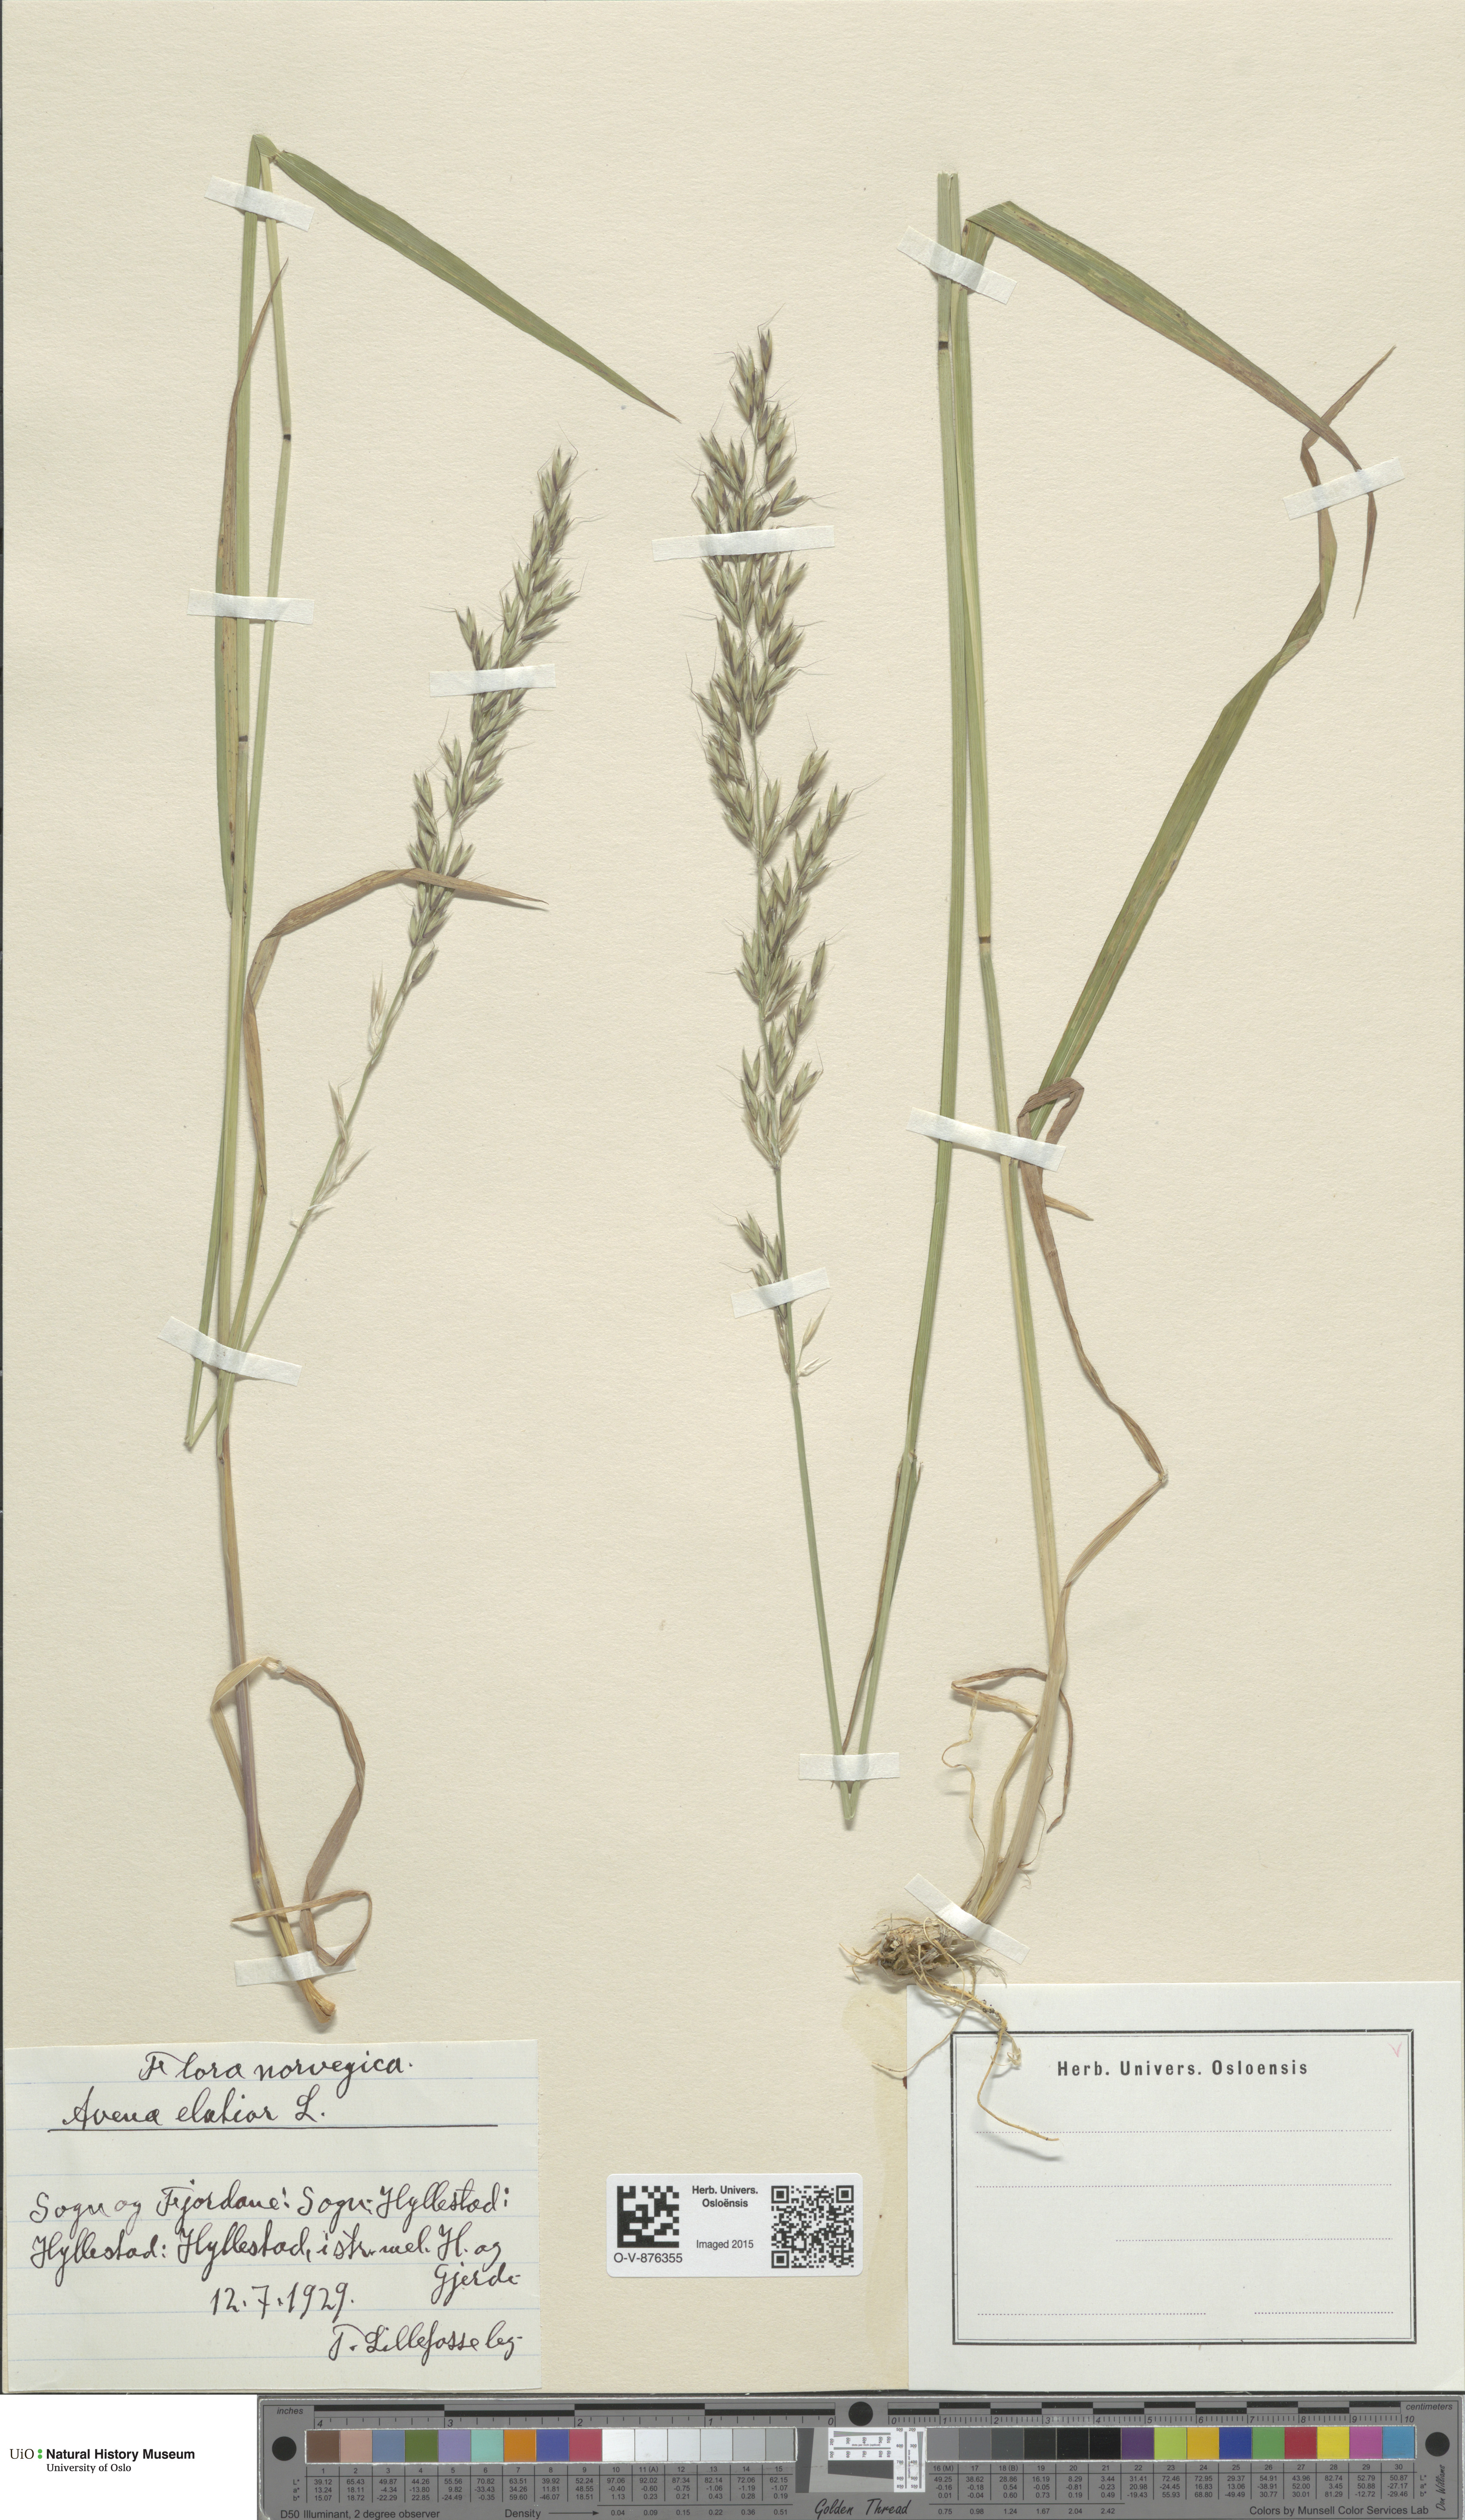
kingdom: Plantae
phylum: Tracheophyta
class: Liliopsida
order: Poales
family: Poaceae
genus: Arrhenatherum
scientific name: Arrhenatherum elatius
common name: Tall oatgrass
